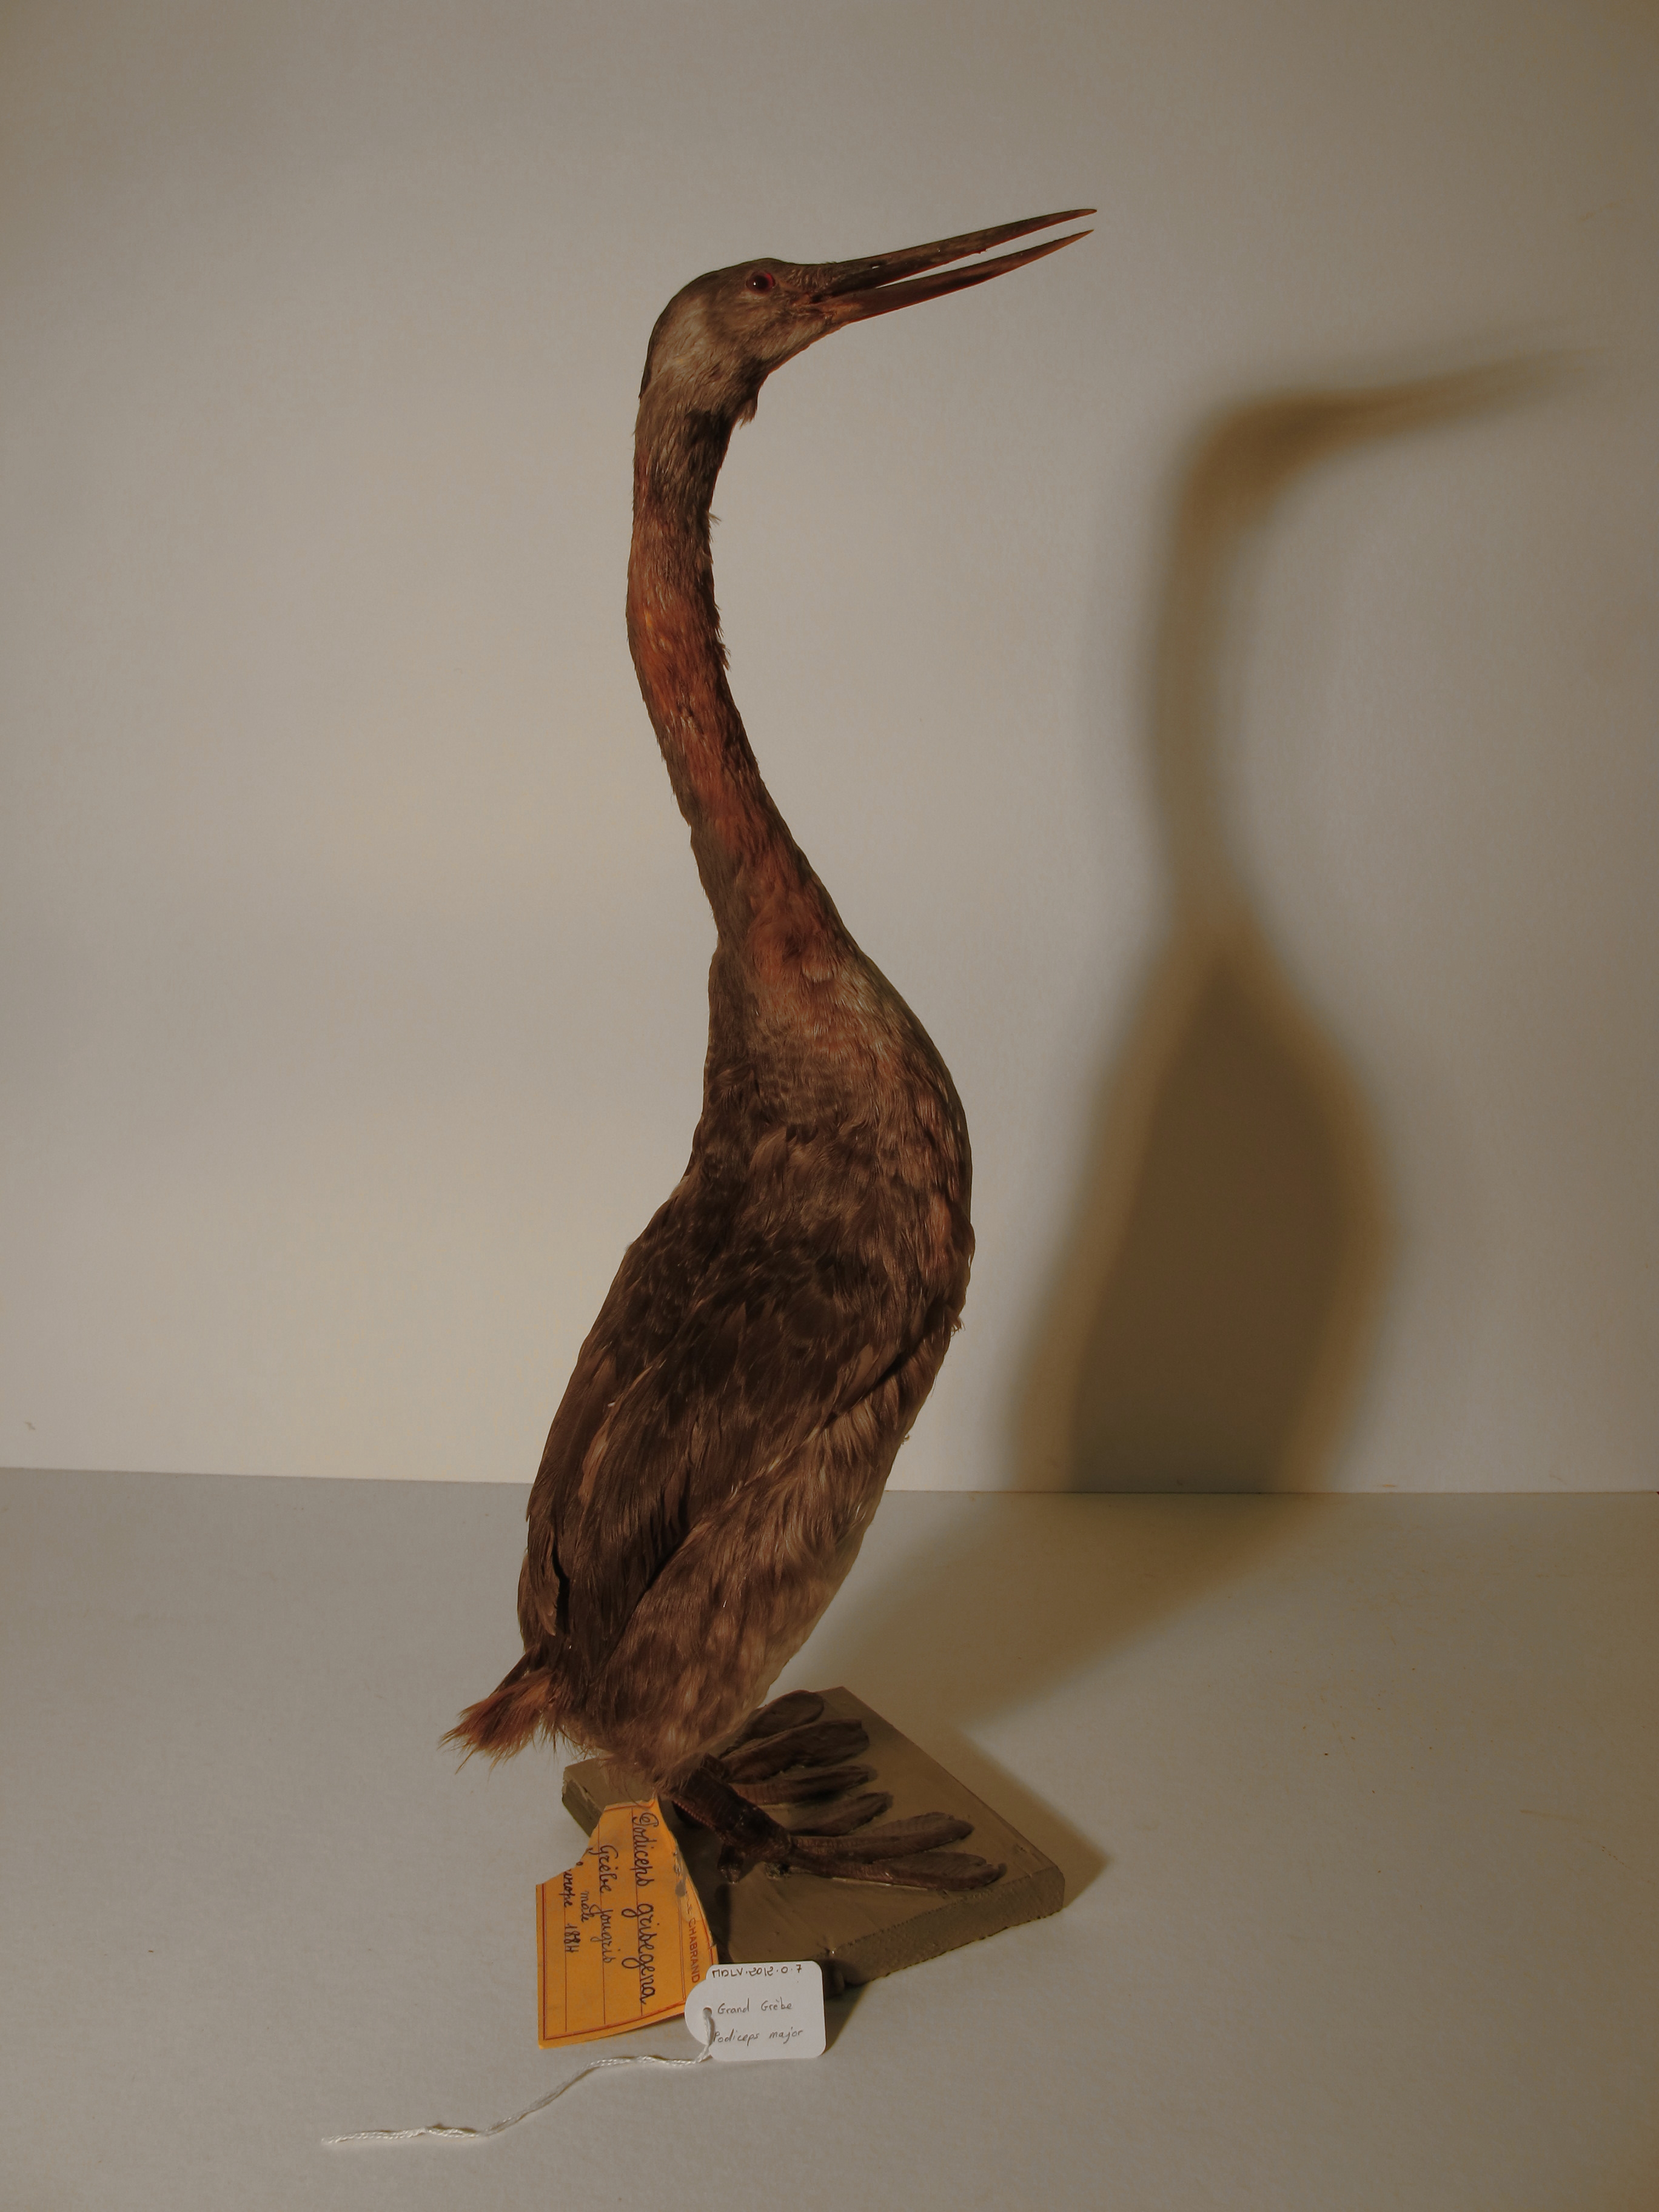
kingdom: Animalia
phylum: Chordata
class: Aves
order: Podicipediformes
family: Podicipedidae
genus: Podiceps
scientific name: Podiceps major
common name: Great Grebe
